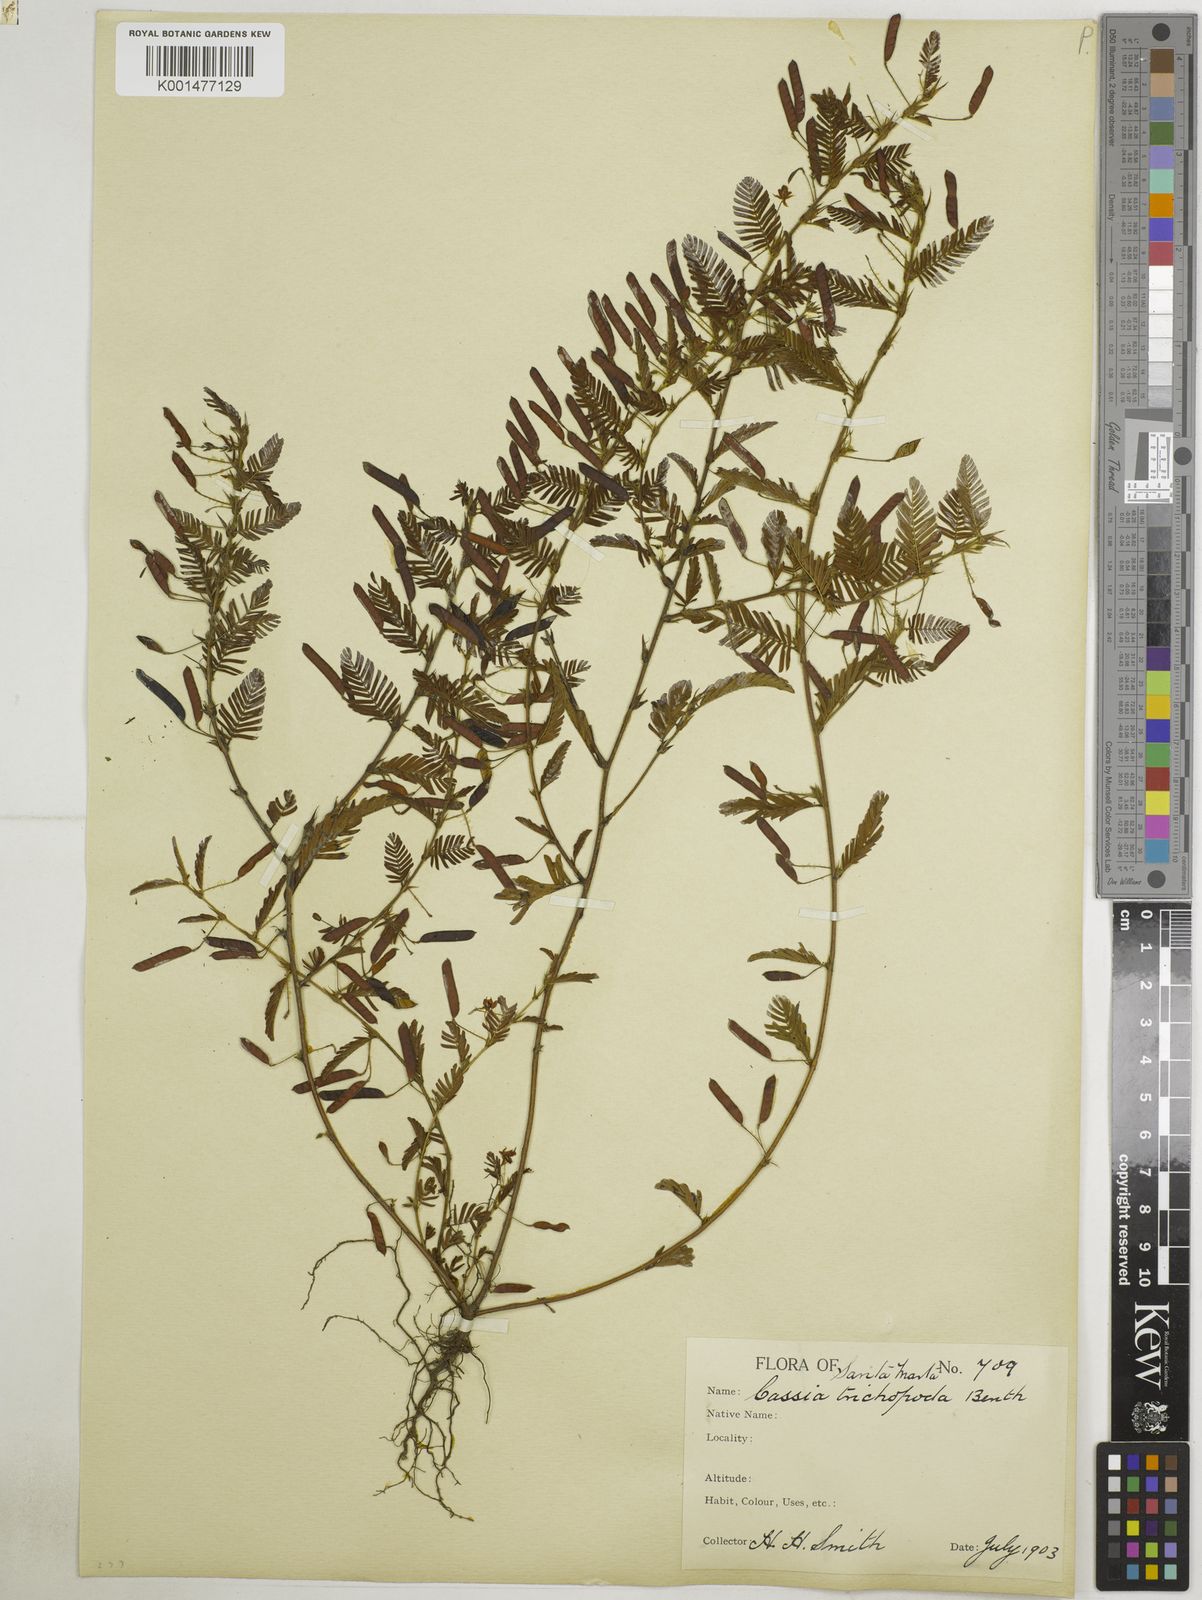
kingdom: Plantae
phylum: Tracheophyta
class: Magnoliopsida
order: Fabales
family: Fabaceae
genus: Chamaecrista
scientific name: Chamaecrista trichopoda
